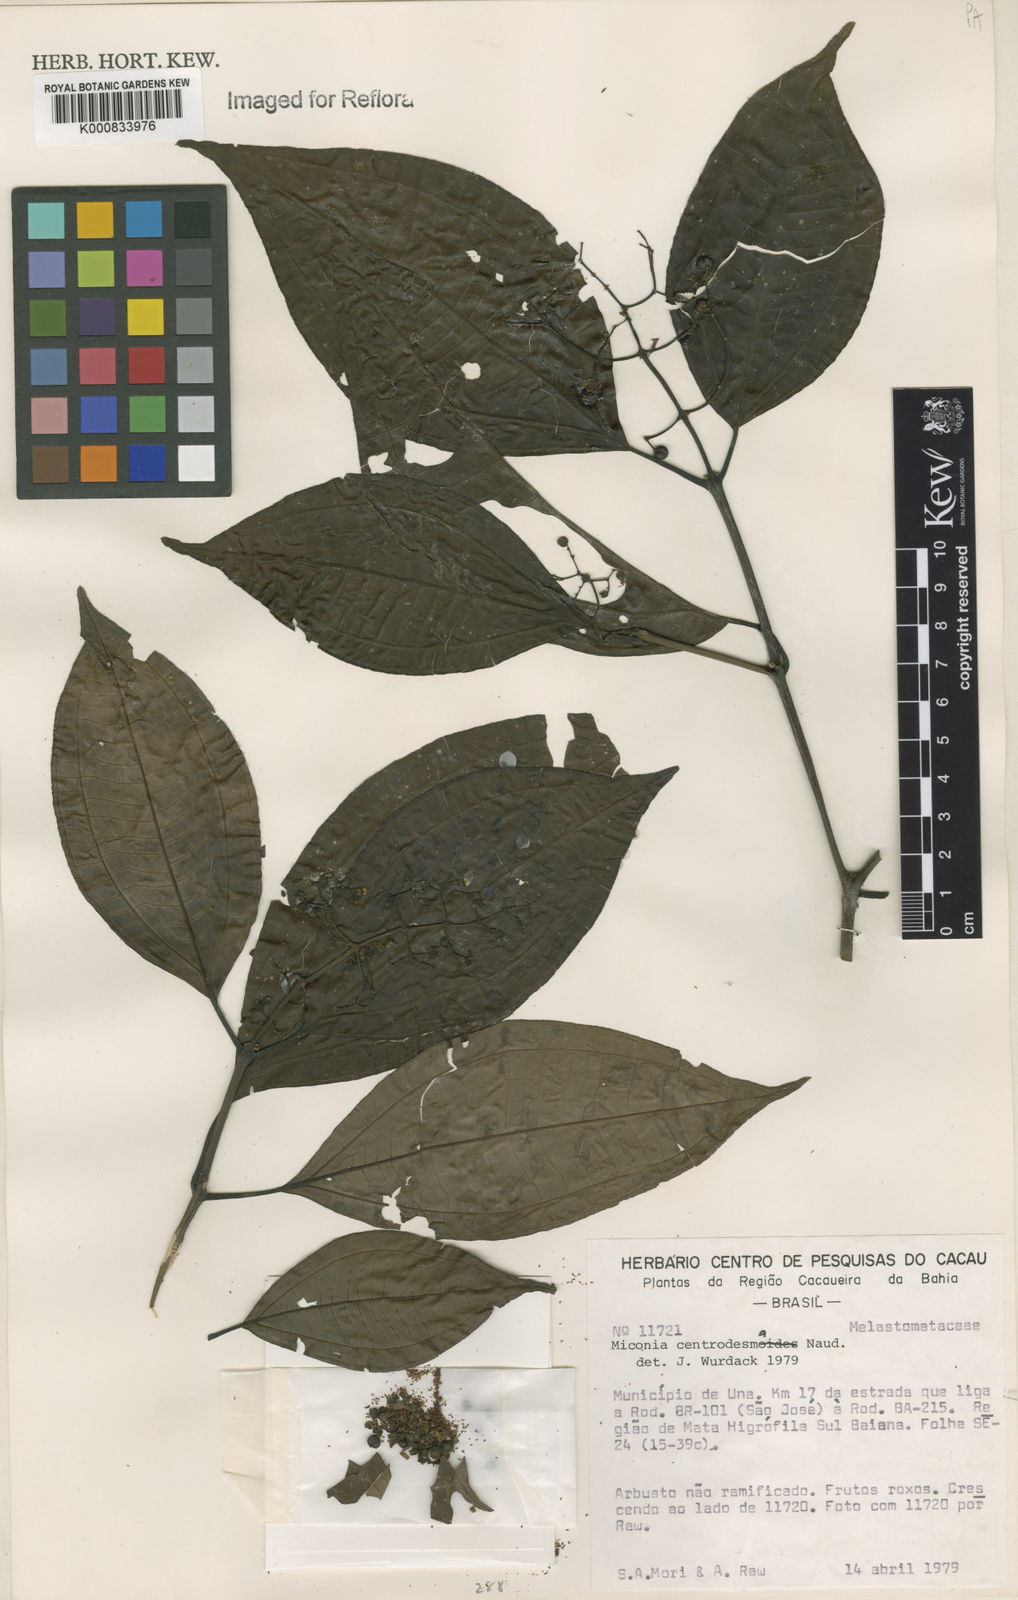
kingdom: Plantae
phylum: Tracheophyta
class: Magnoliopsida
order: Myrtales
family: Melastomataceae
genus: Miconia
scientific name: Miconia centrodesma
